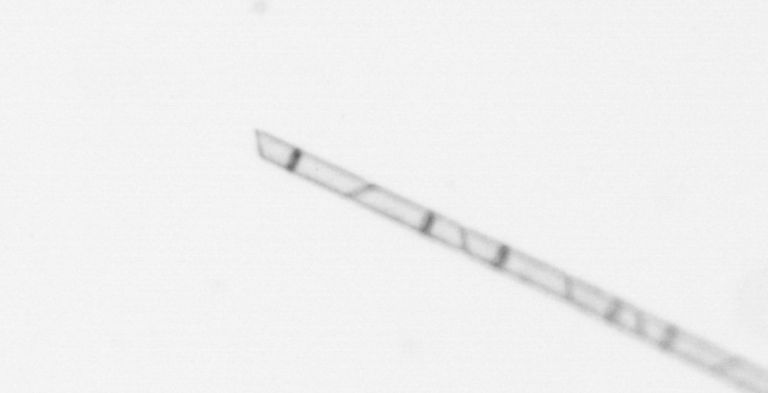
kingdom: Chromista
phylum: Ochrophyta
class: Bacillariophyceae
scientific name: Bacillariophyceae
